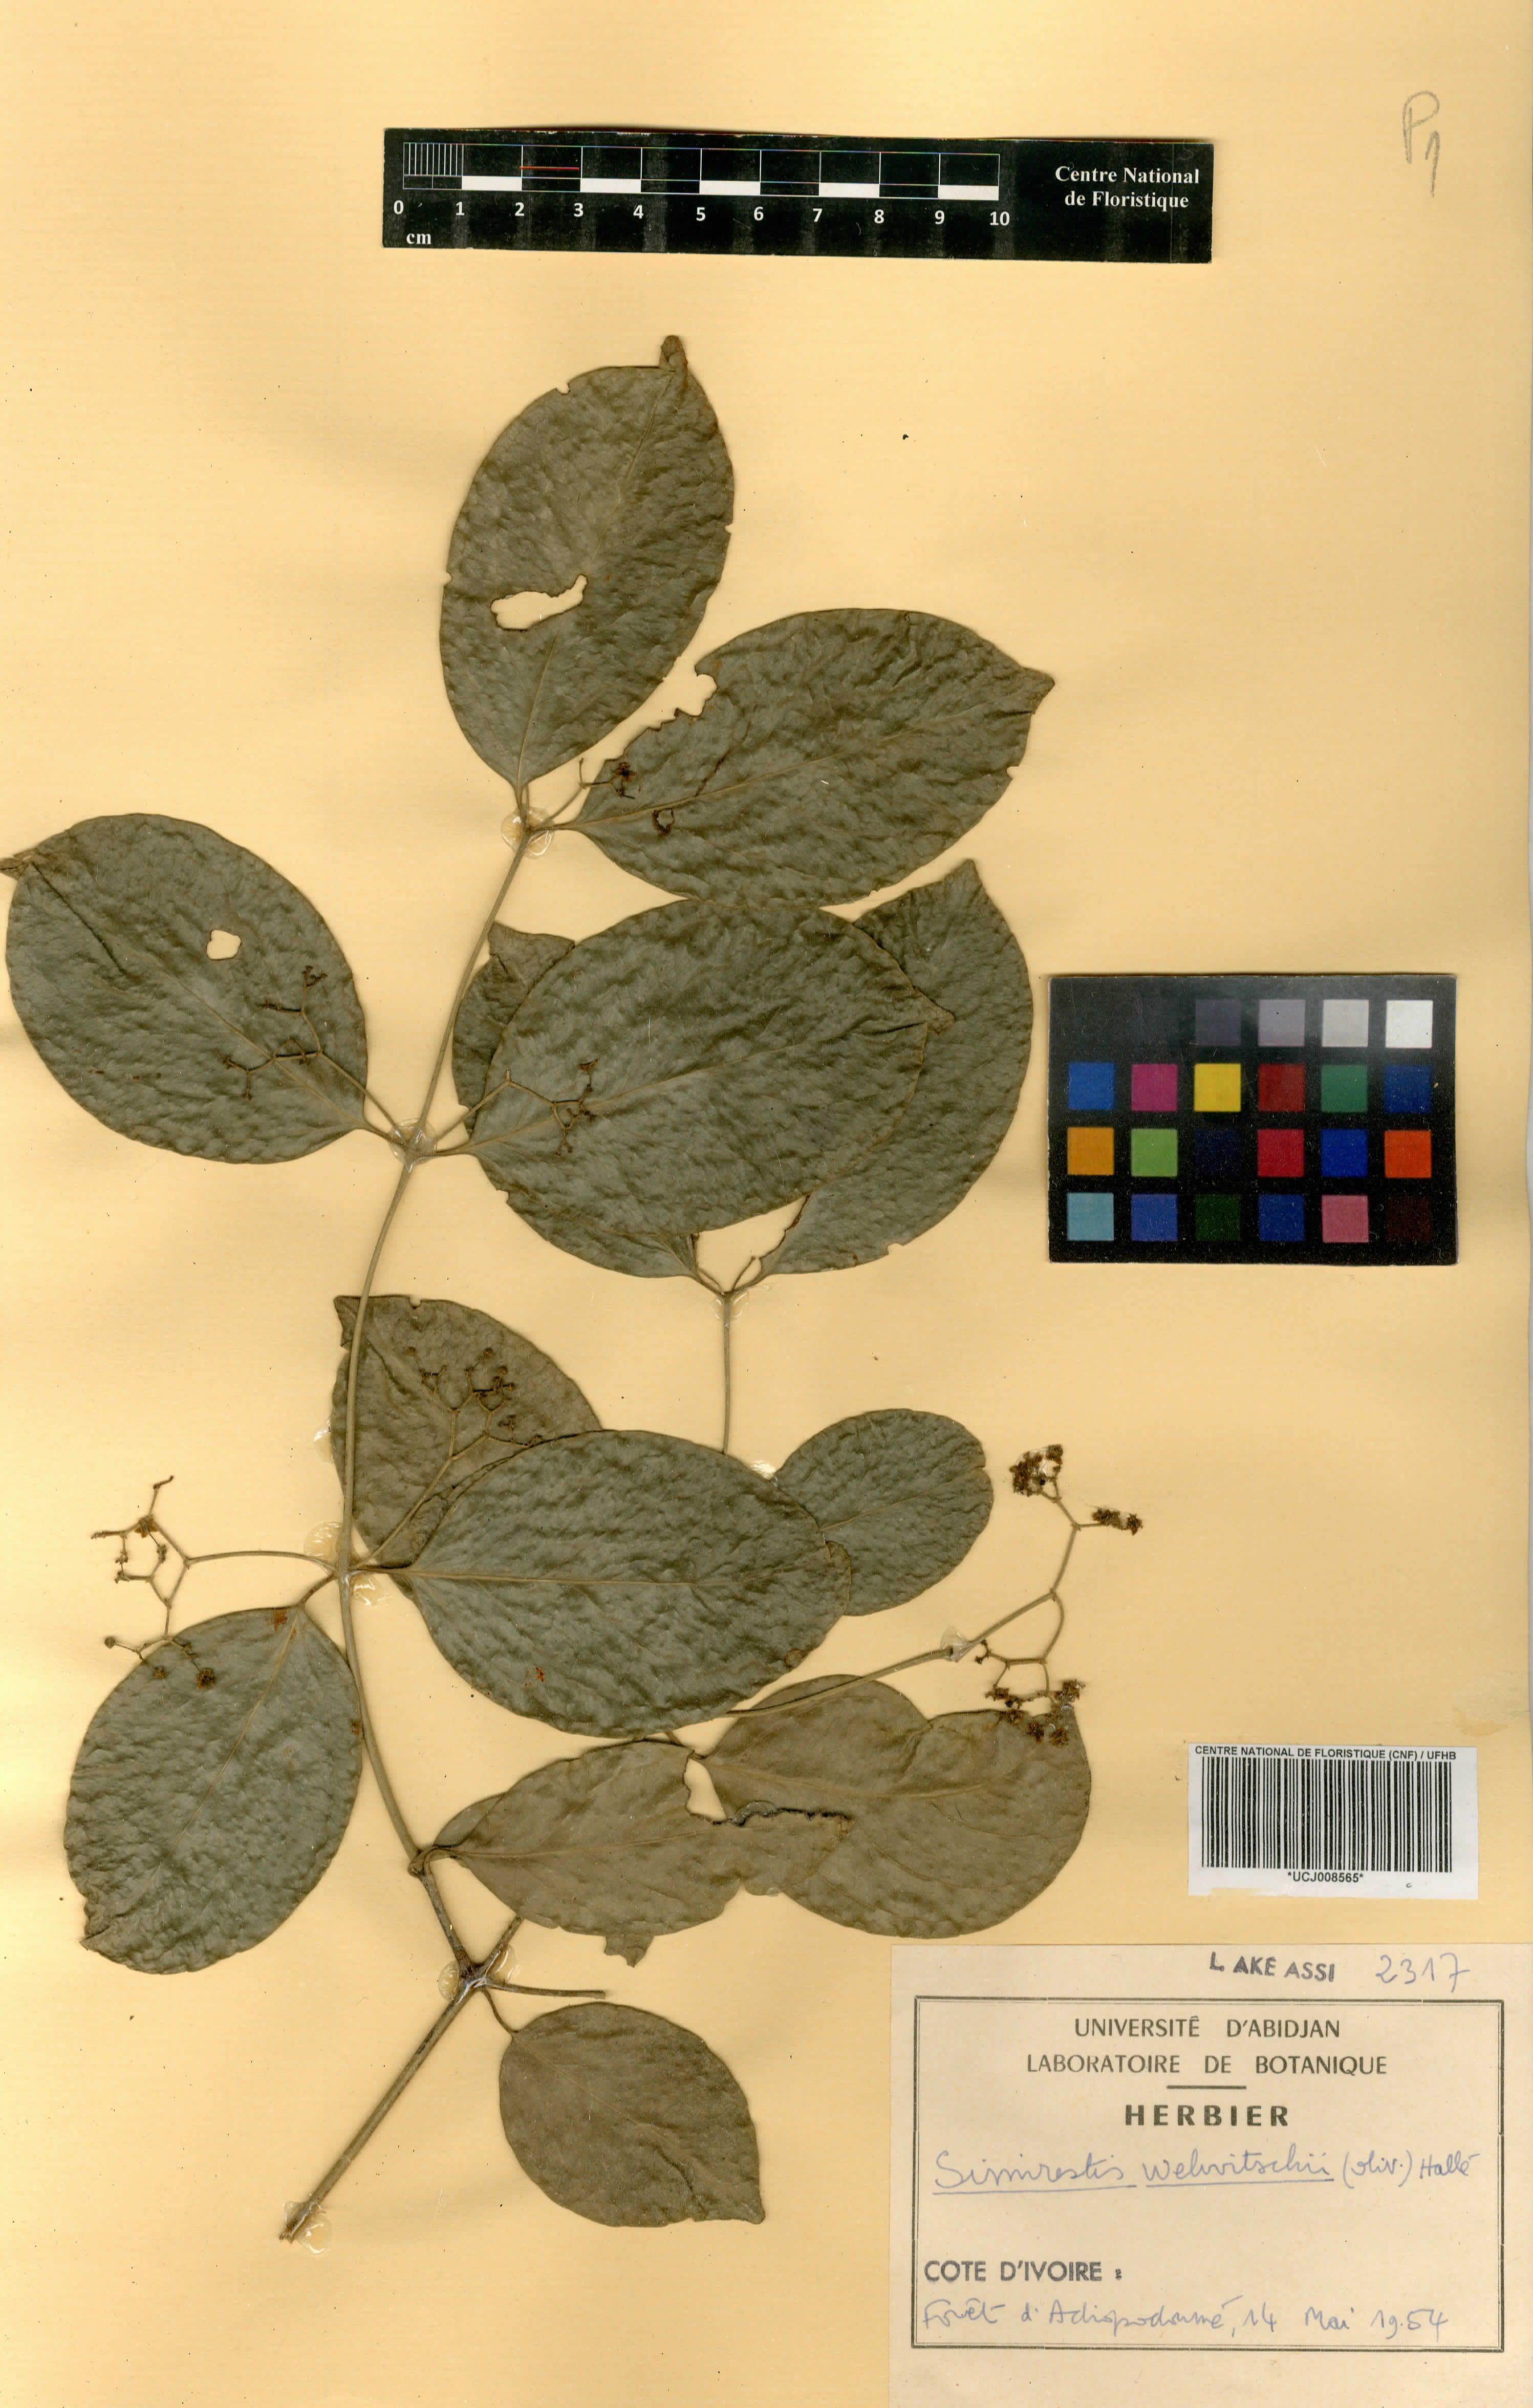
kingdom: Plantae
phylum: Tracheophyta
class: Magnoliopsida
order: Celastrales
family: Celastraceae
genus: Simicratea
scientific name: Simicratea welwitschii
